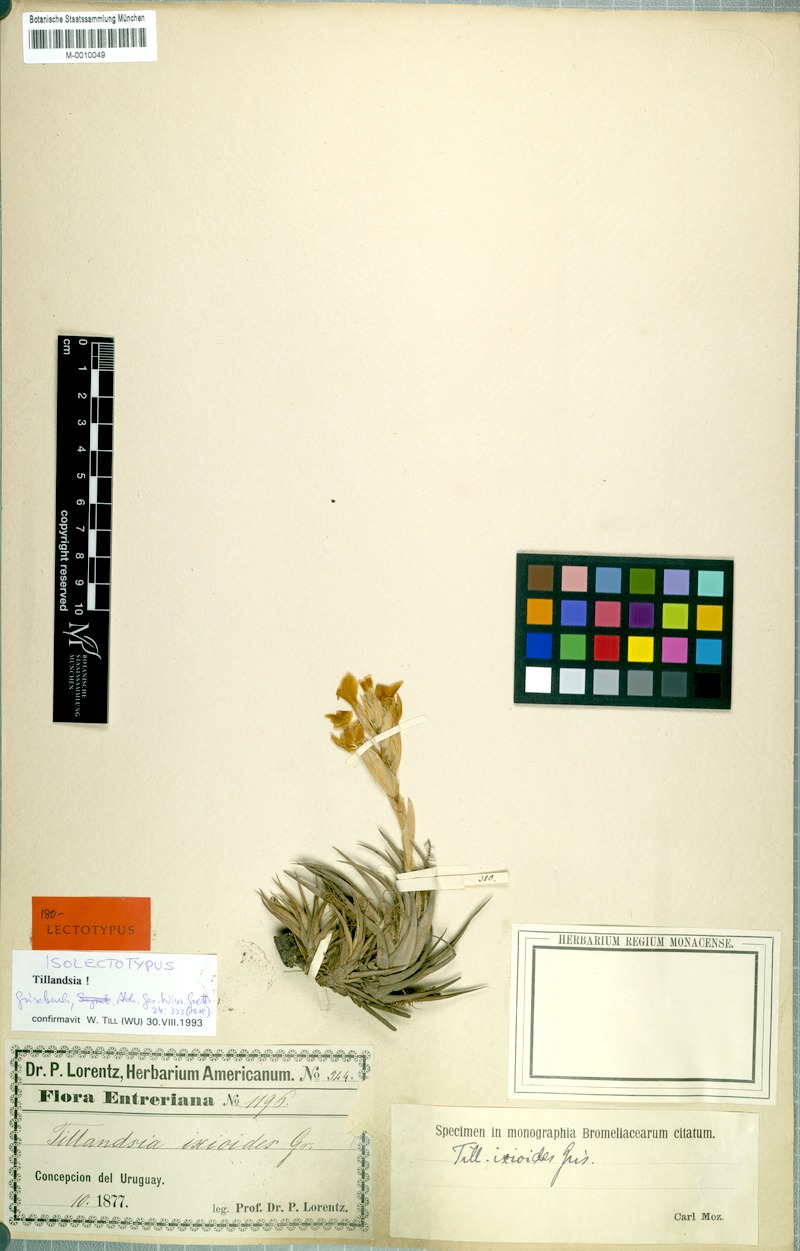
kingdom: Plantae
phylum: Tracheophyta
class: Liliopsida
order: Poales
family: Bromeliaceae
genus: Tillandsia
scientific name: Tillandsia ixioides
